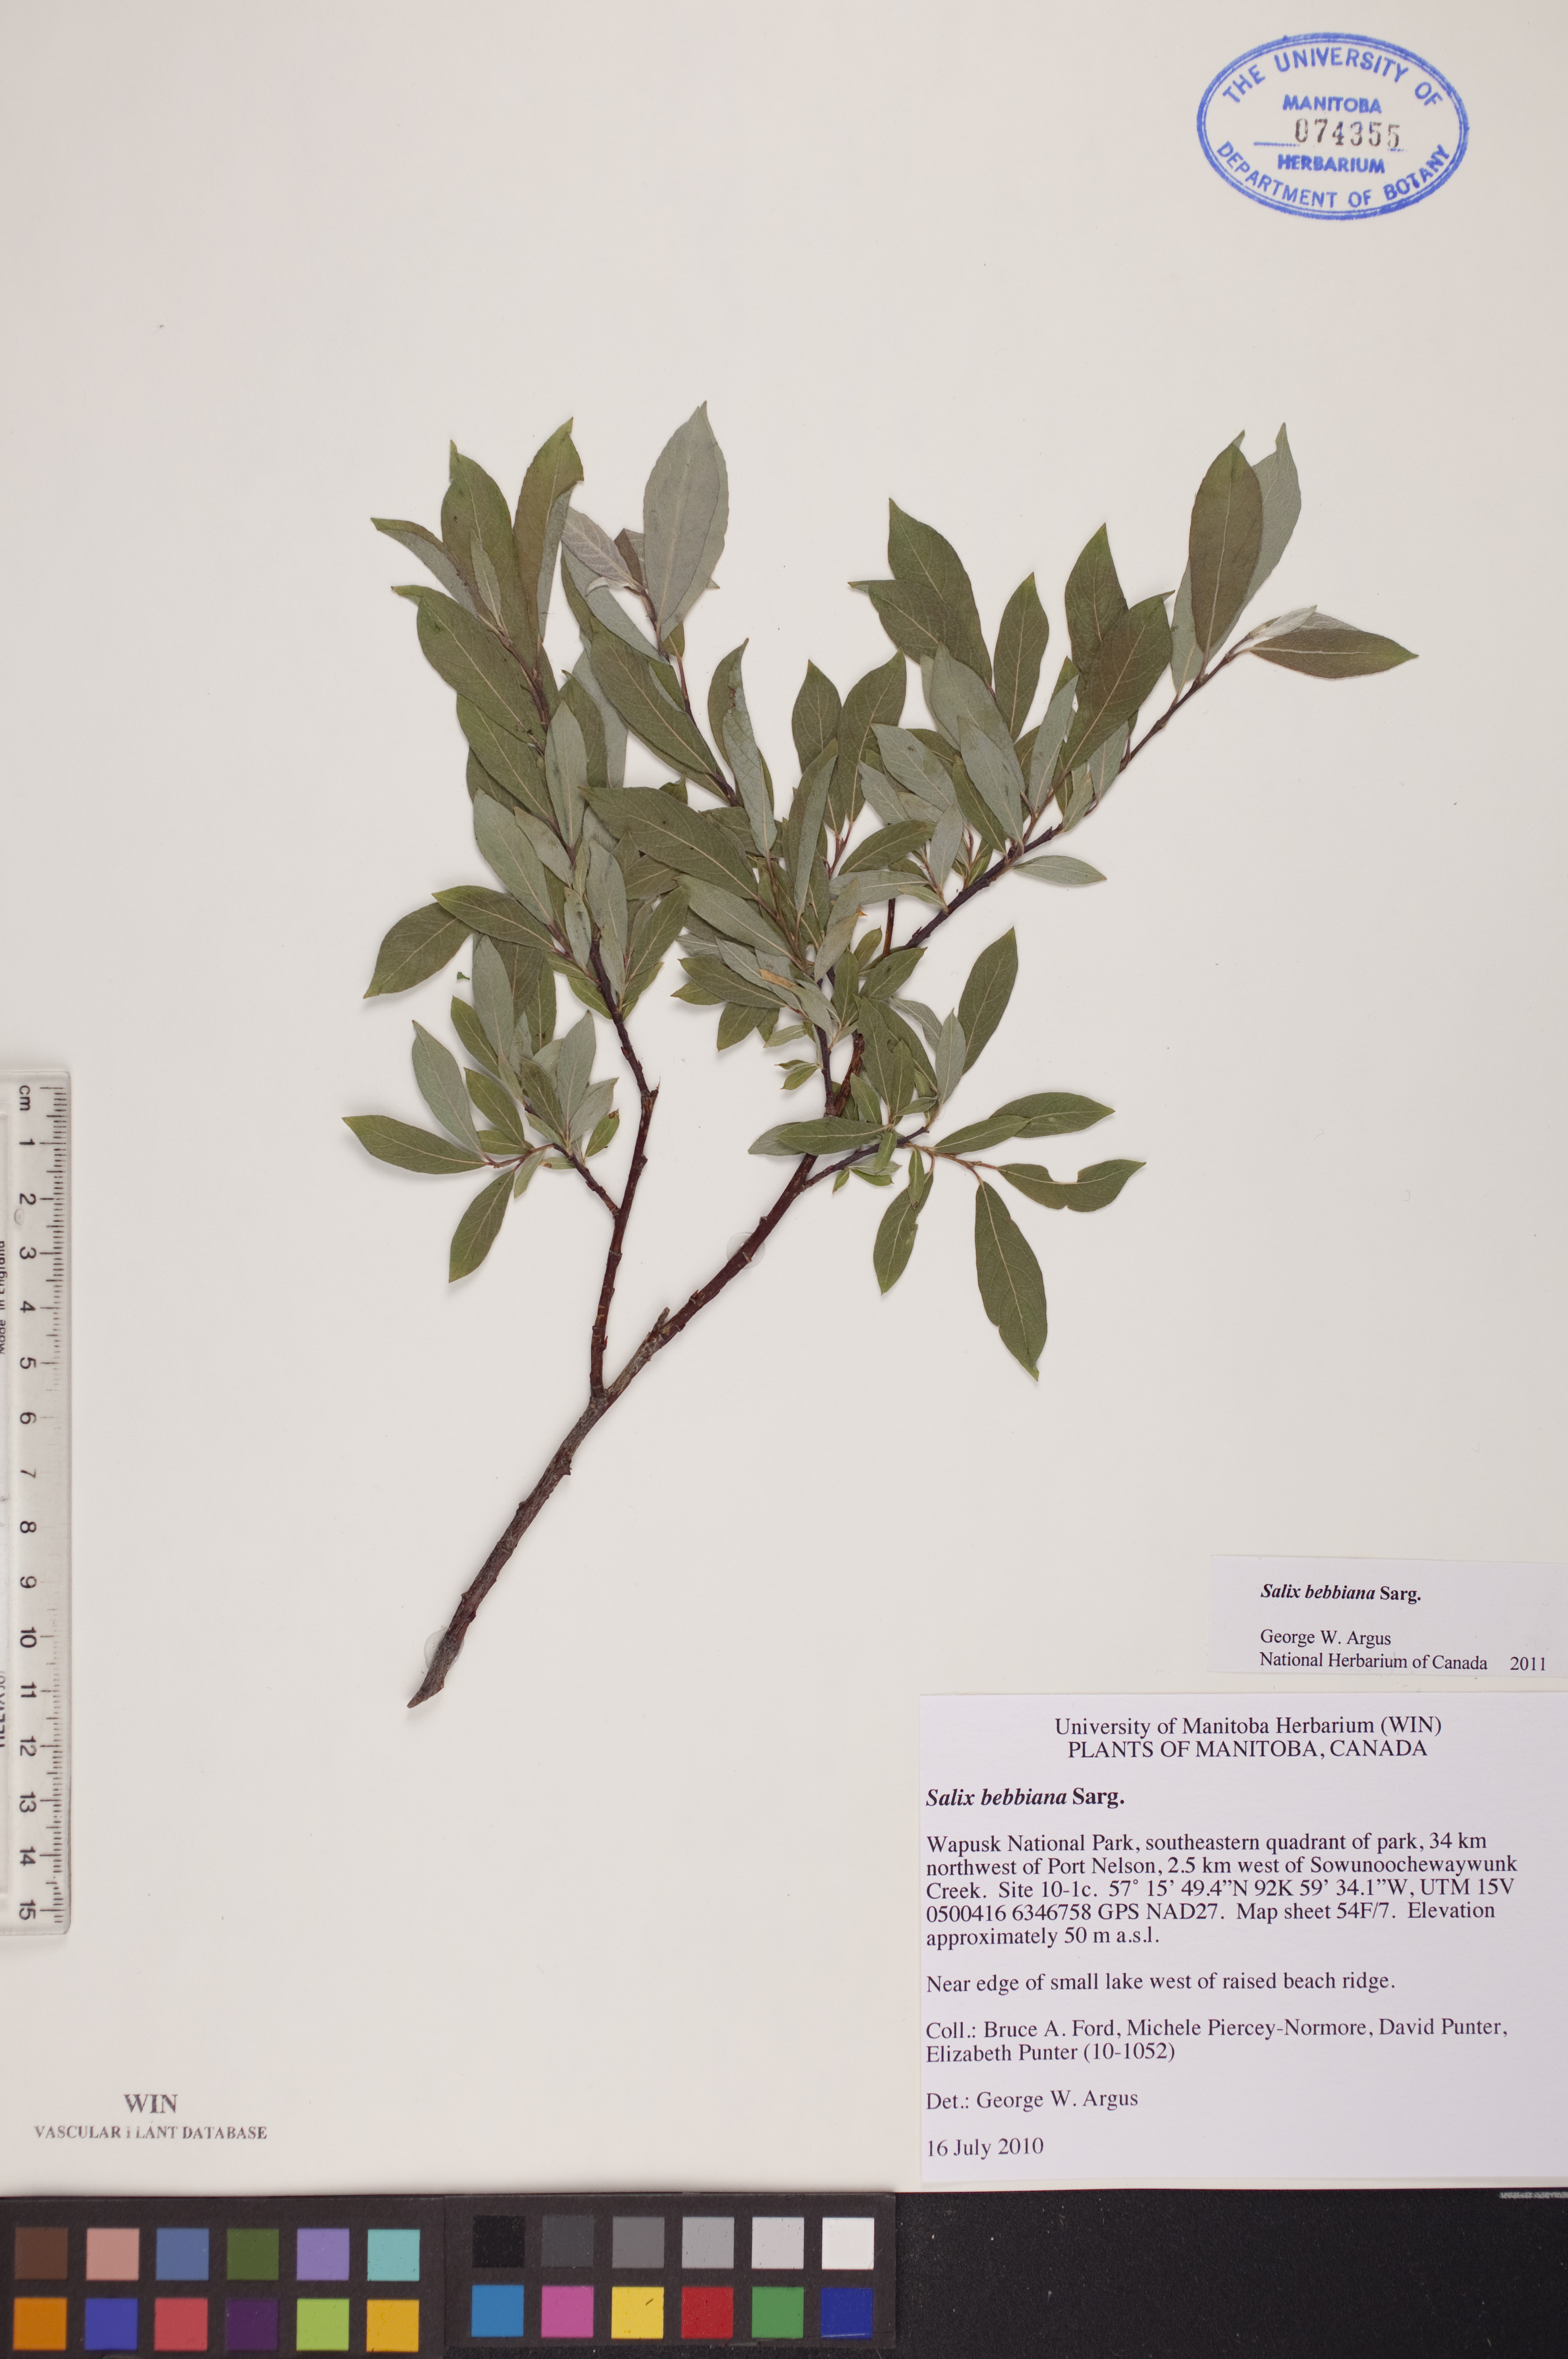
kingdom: Plantae
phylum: Tracheophyta
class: Magnoliopsida
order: Malpighiales
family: Salicaceae
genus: Salix
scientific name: Salix bebbiana
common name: Bebb's willow
